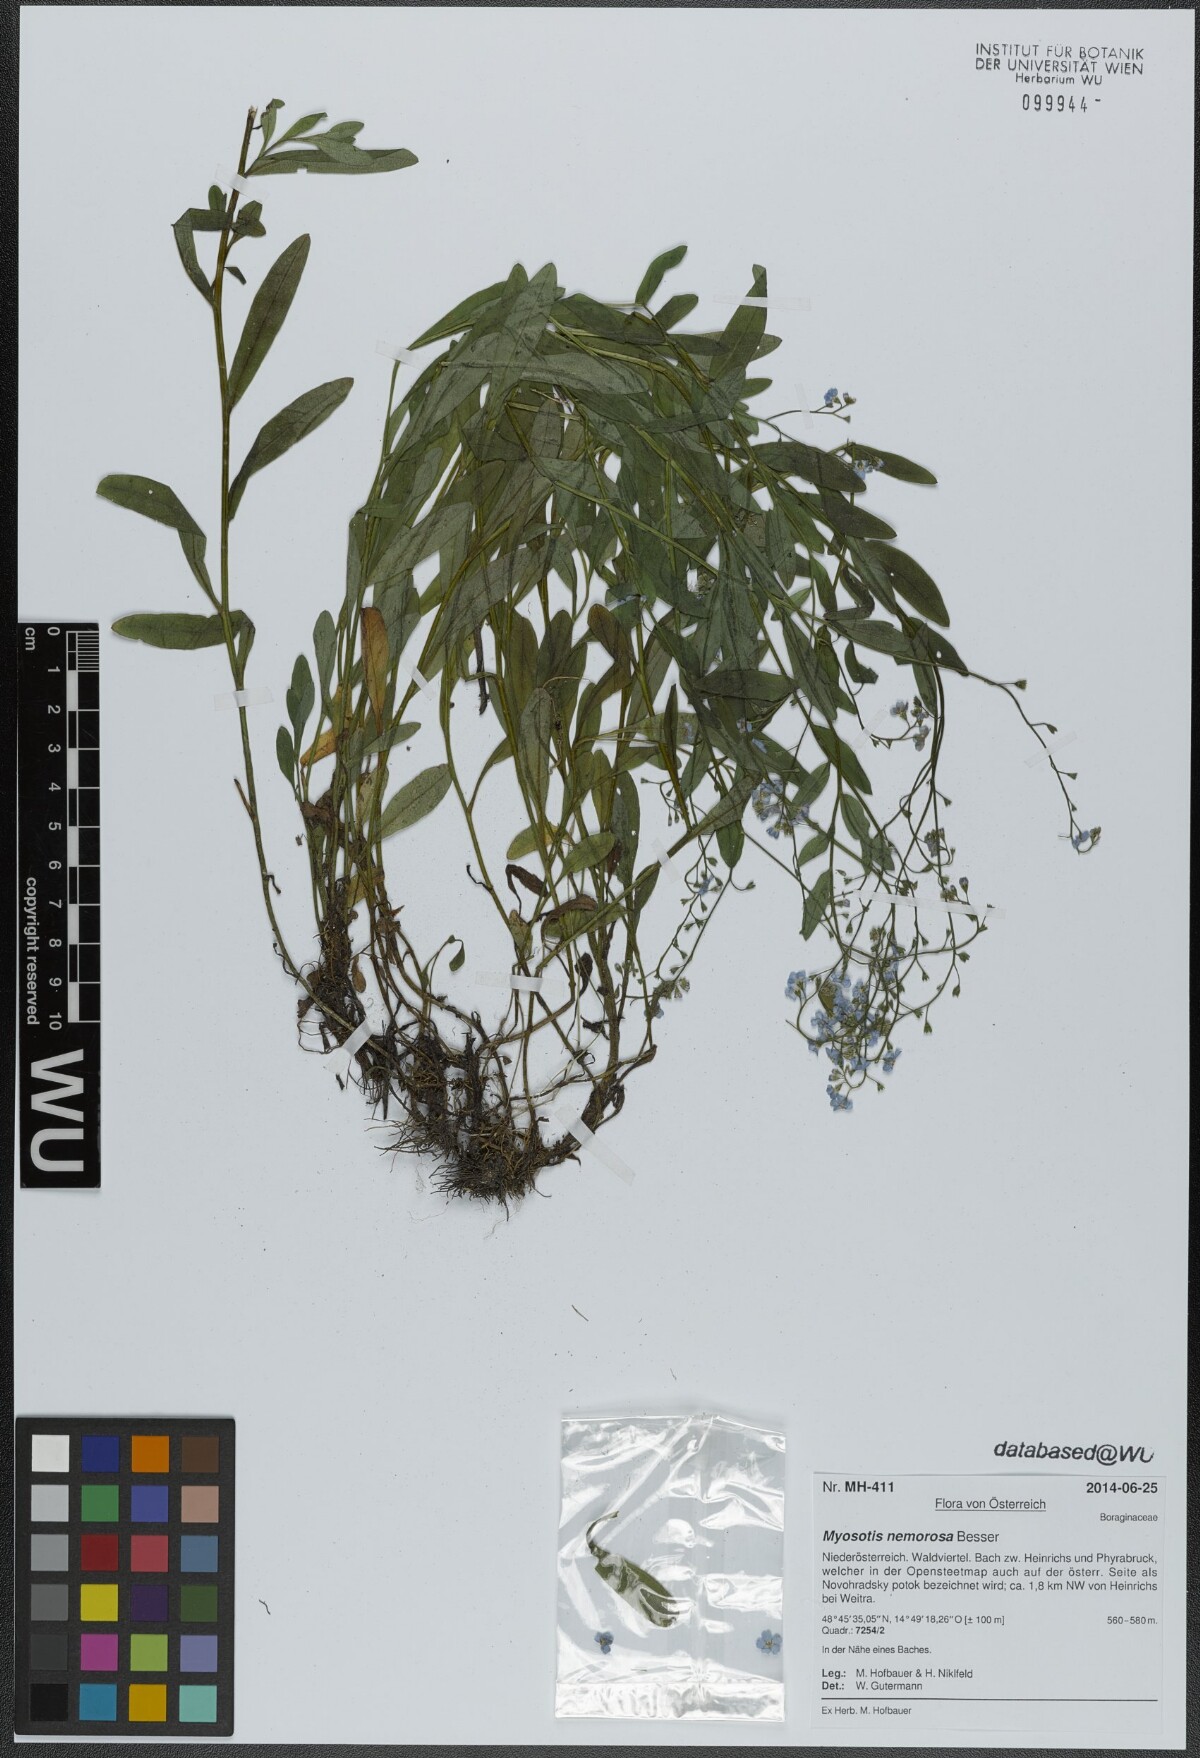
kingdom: Plantae
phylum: Tracheophyta
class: Magnoliopsida
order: Boraginales
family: Boraginaceae
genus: Myosotis
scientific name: Myosotis nemorosa
